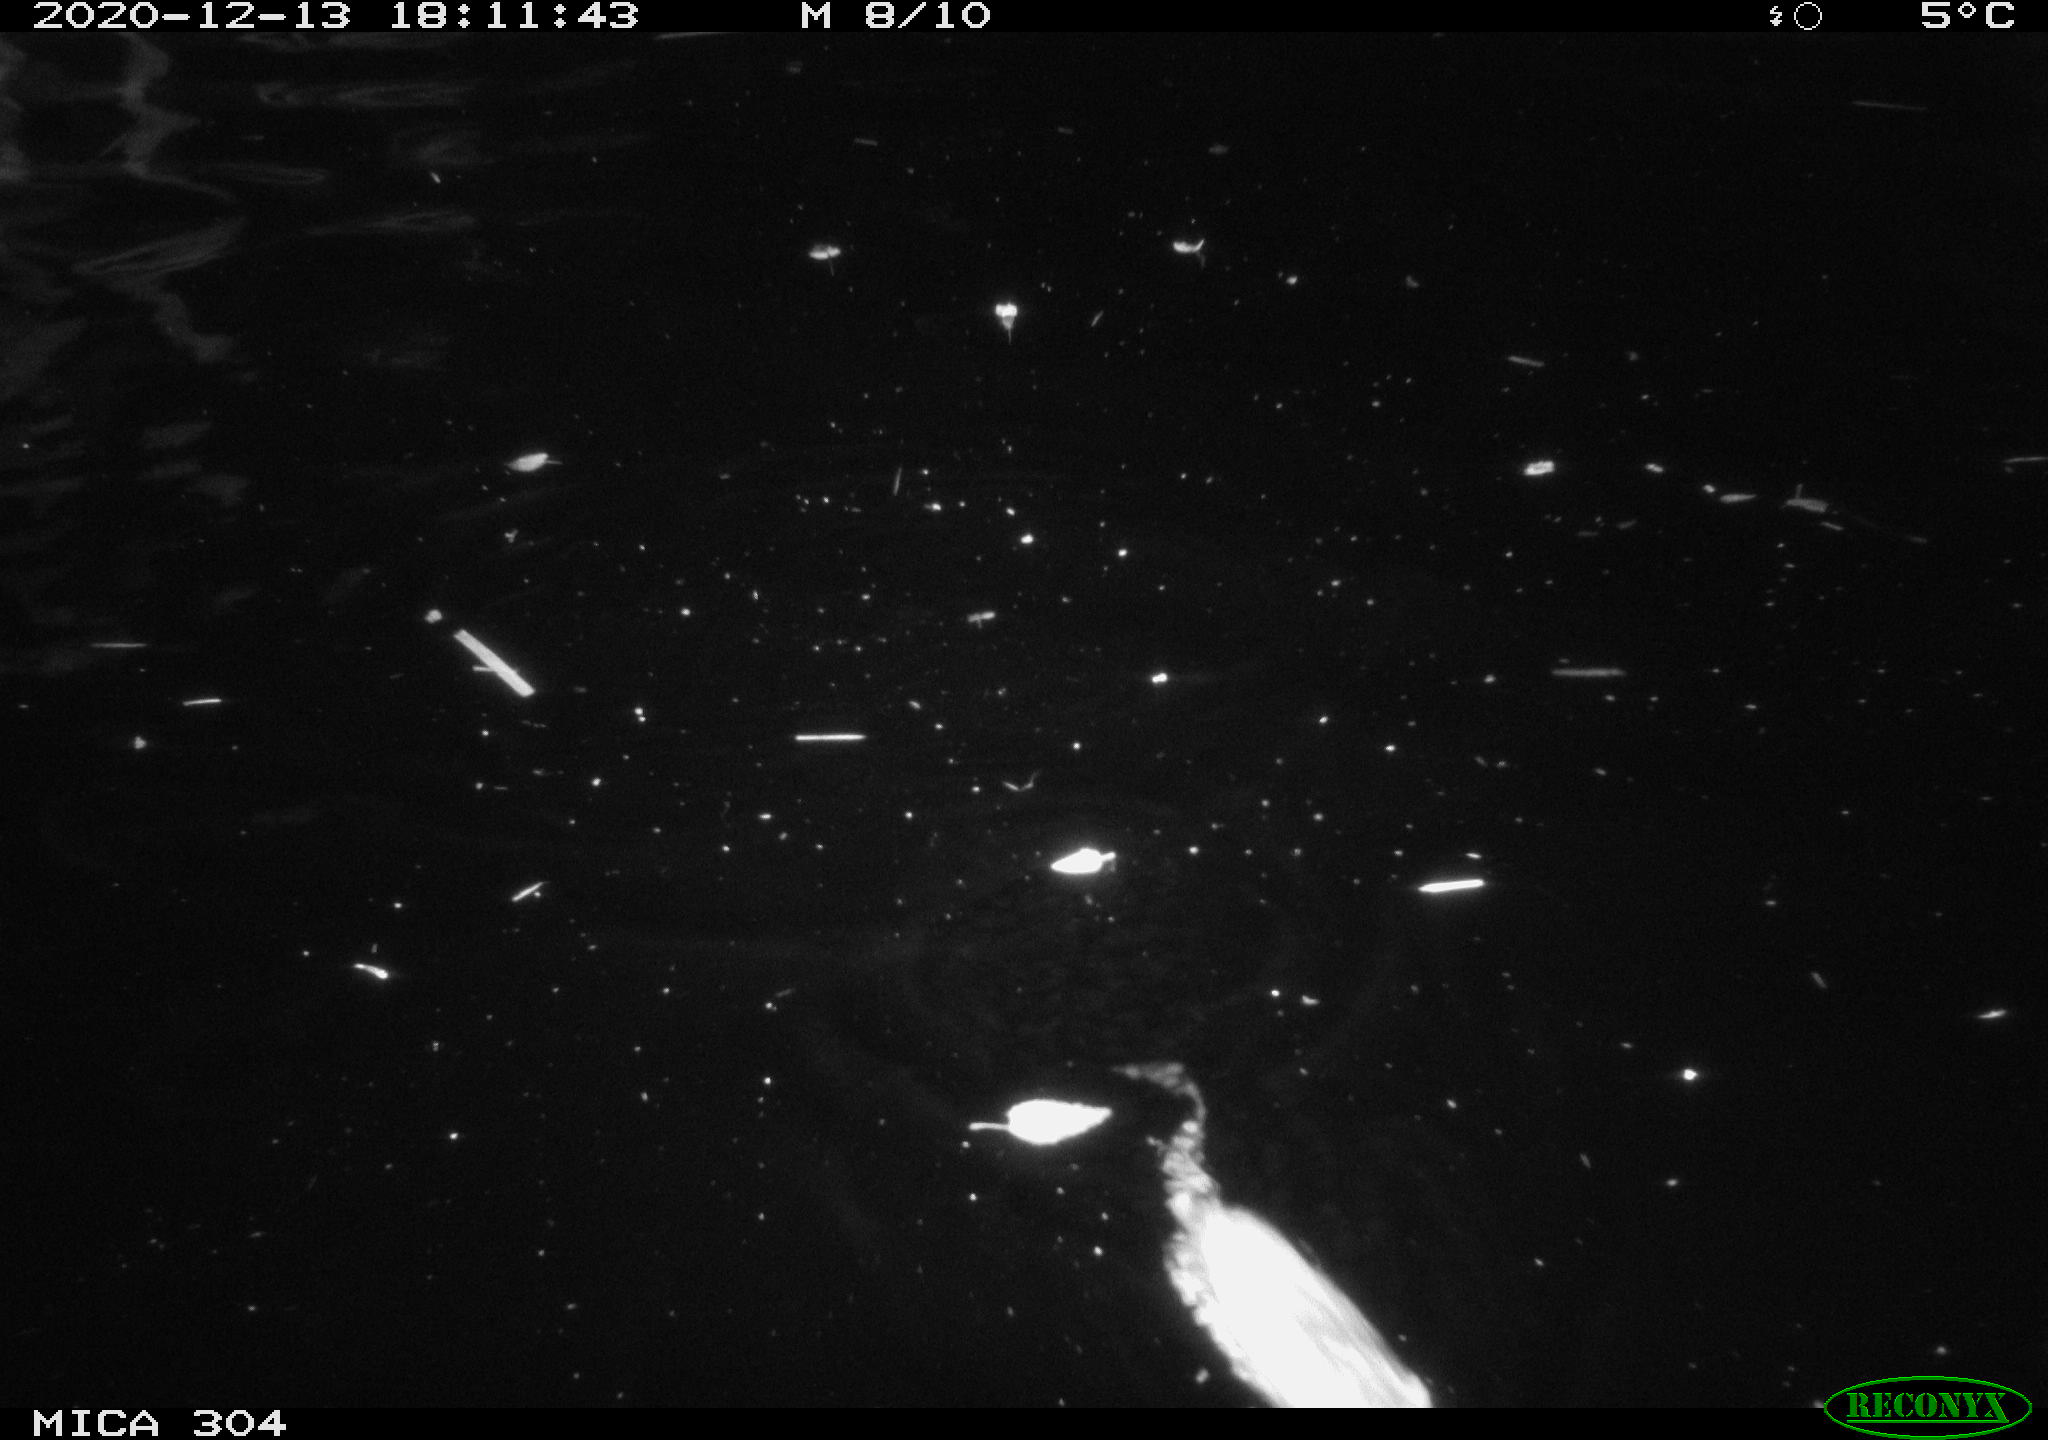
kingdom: Animalia
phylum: Chordata
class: Mammalia
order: Rodentia
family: Muridae
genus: Rattus
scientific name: Rattus norvegicus
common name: Brown rat
